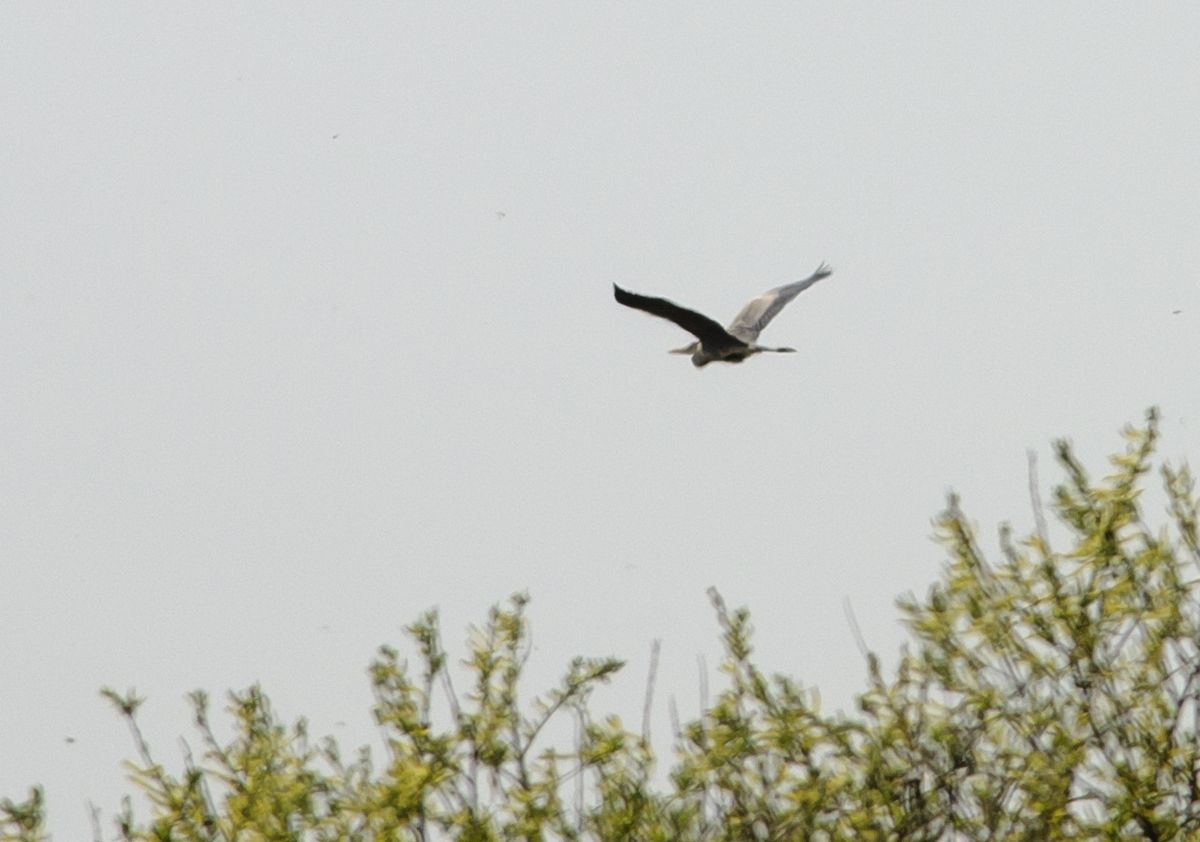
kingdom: Animalia
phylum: Chordata
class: Aves
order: Pelecaniformes
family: Ardeidae
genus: Ardea
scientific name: Ardea cinerea
